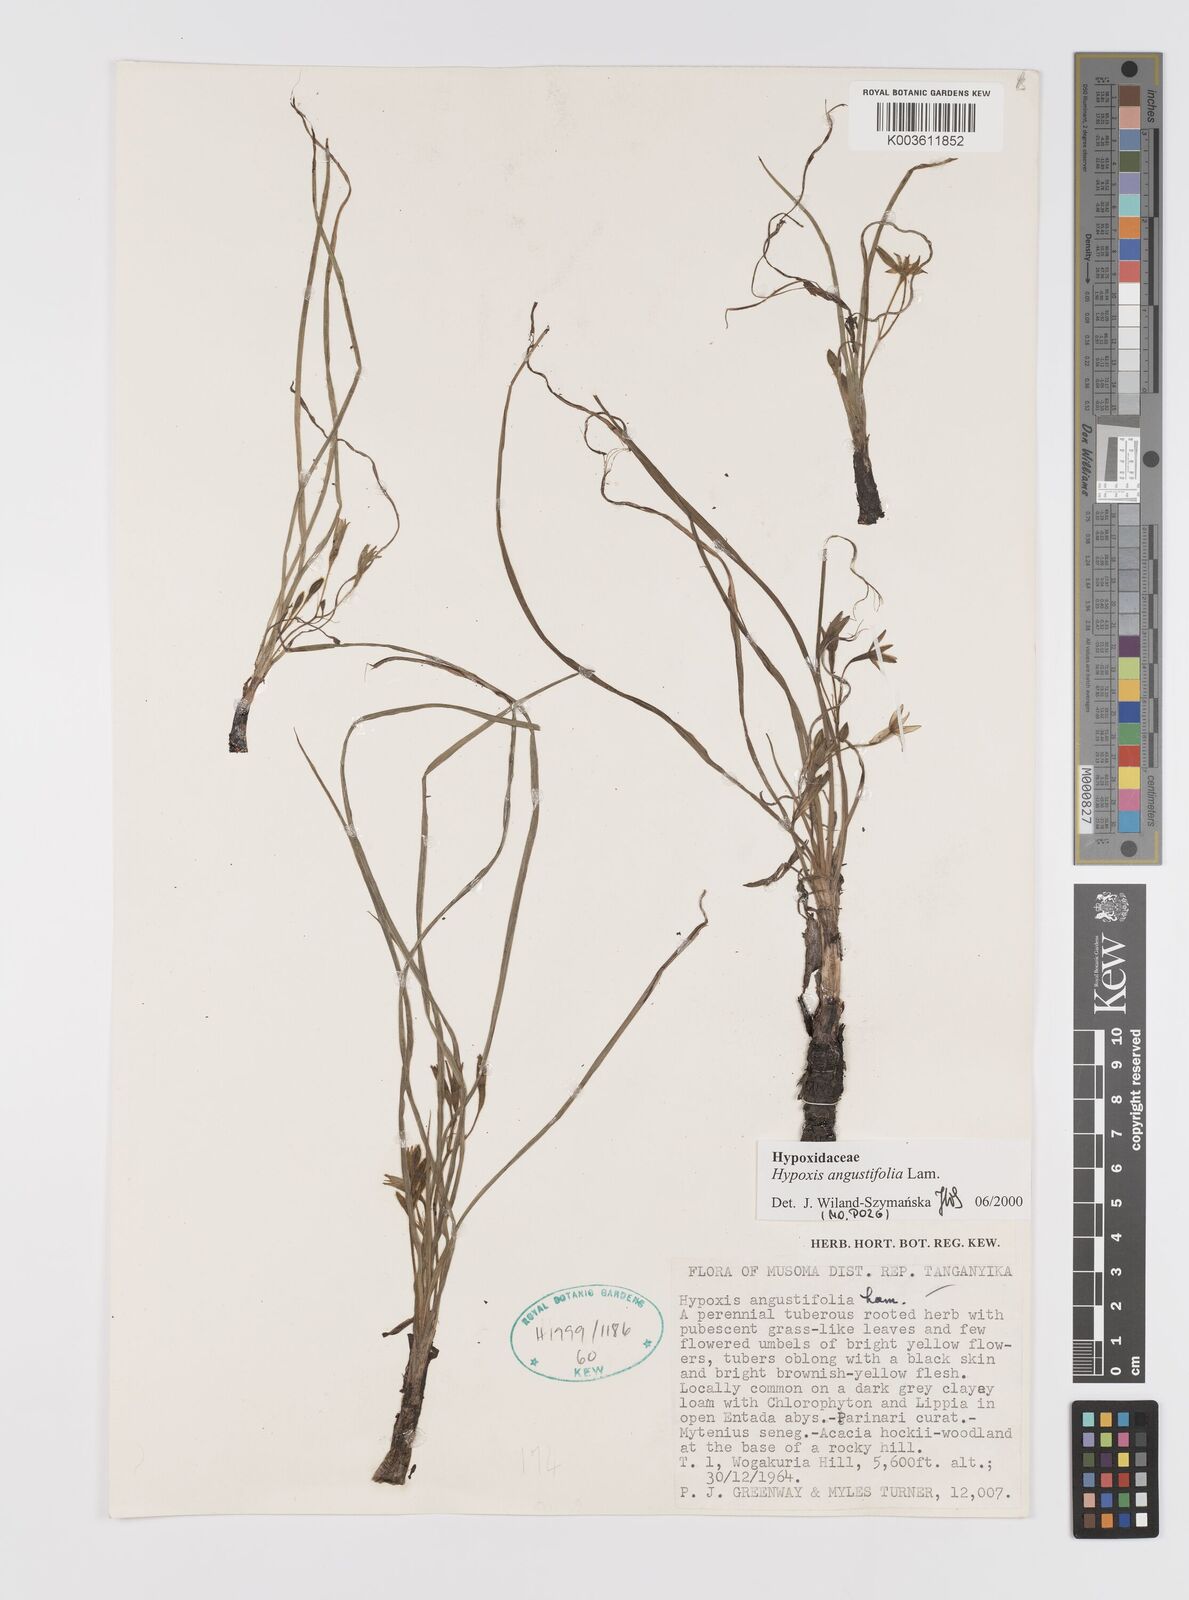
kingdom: Plantae
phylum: Tracheophyta
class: Liliopsida
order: Asparagales
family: Hypoxidaceae
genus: Hypoxis
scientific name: Hypoxis angustifolia
